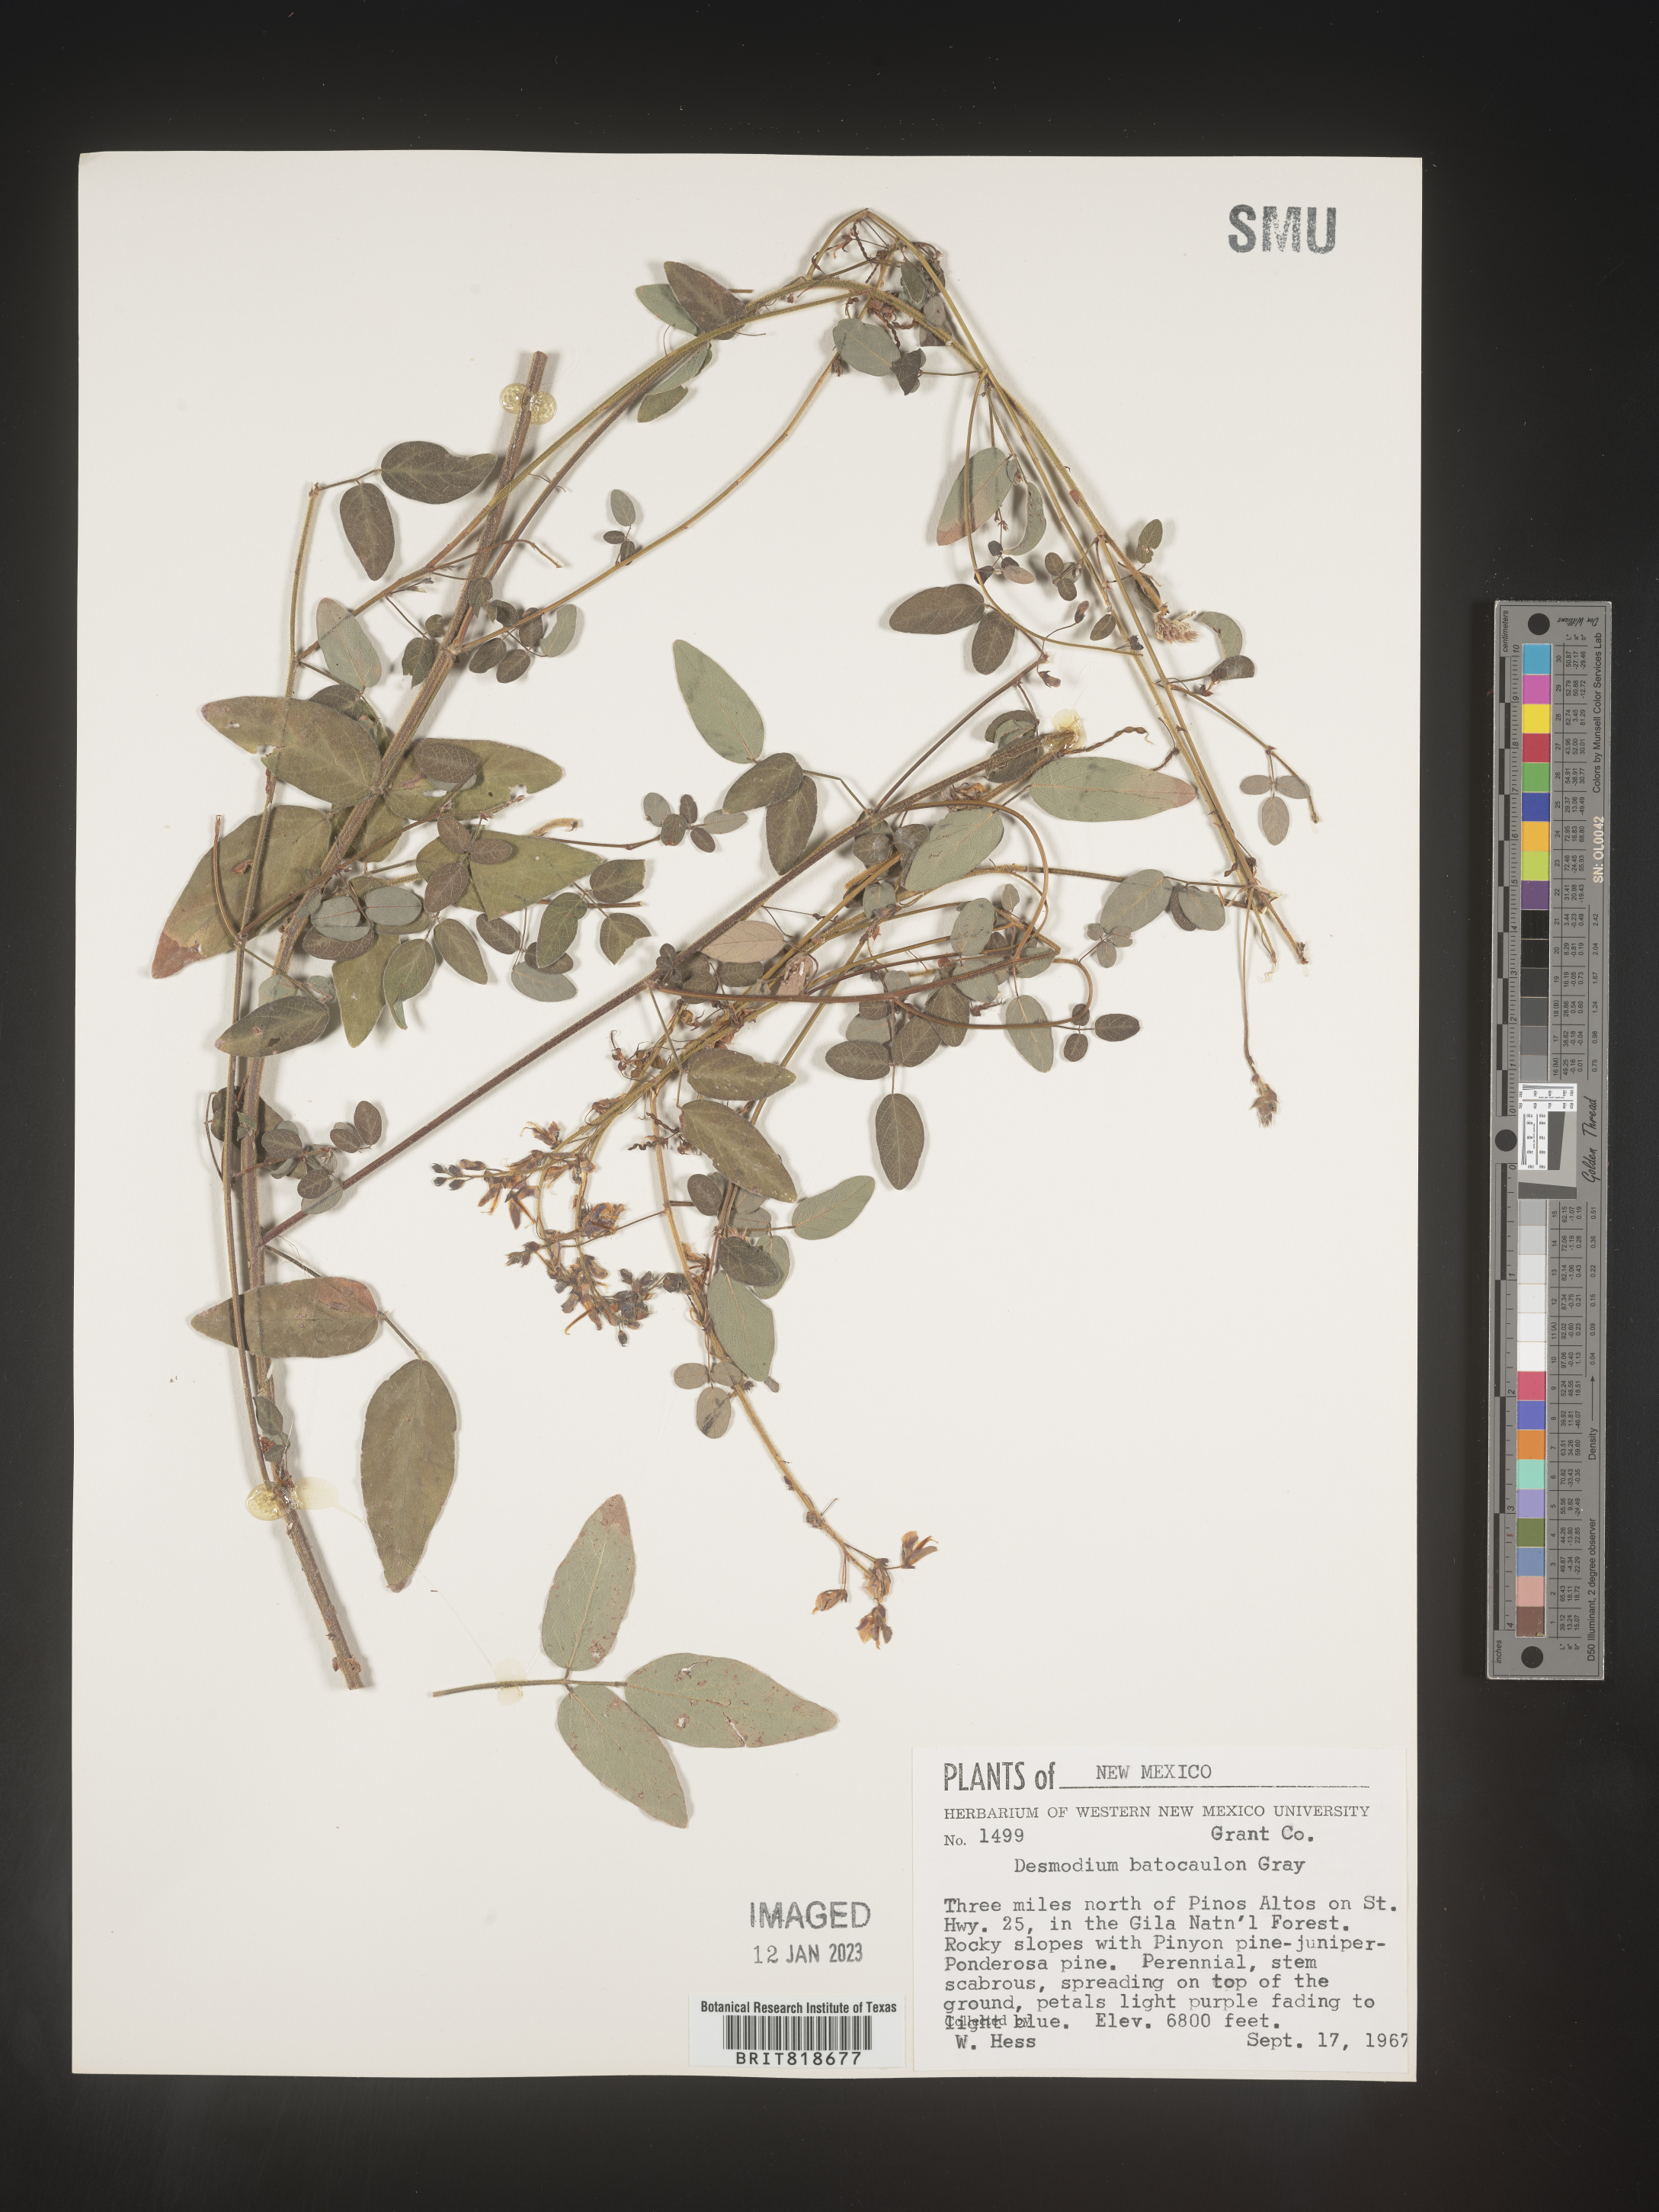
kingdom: Plantae
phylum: Tracheophyta
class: Magnoliopsida
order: Fabales
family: Fabaceae
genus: Desmodium
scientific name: Desmodium
